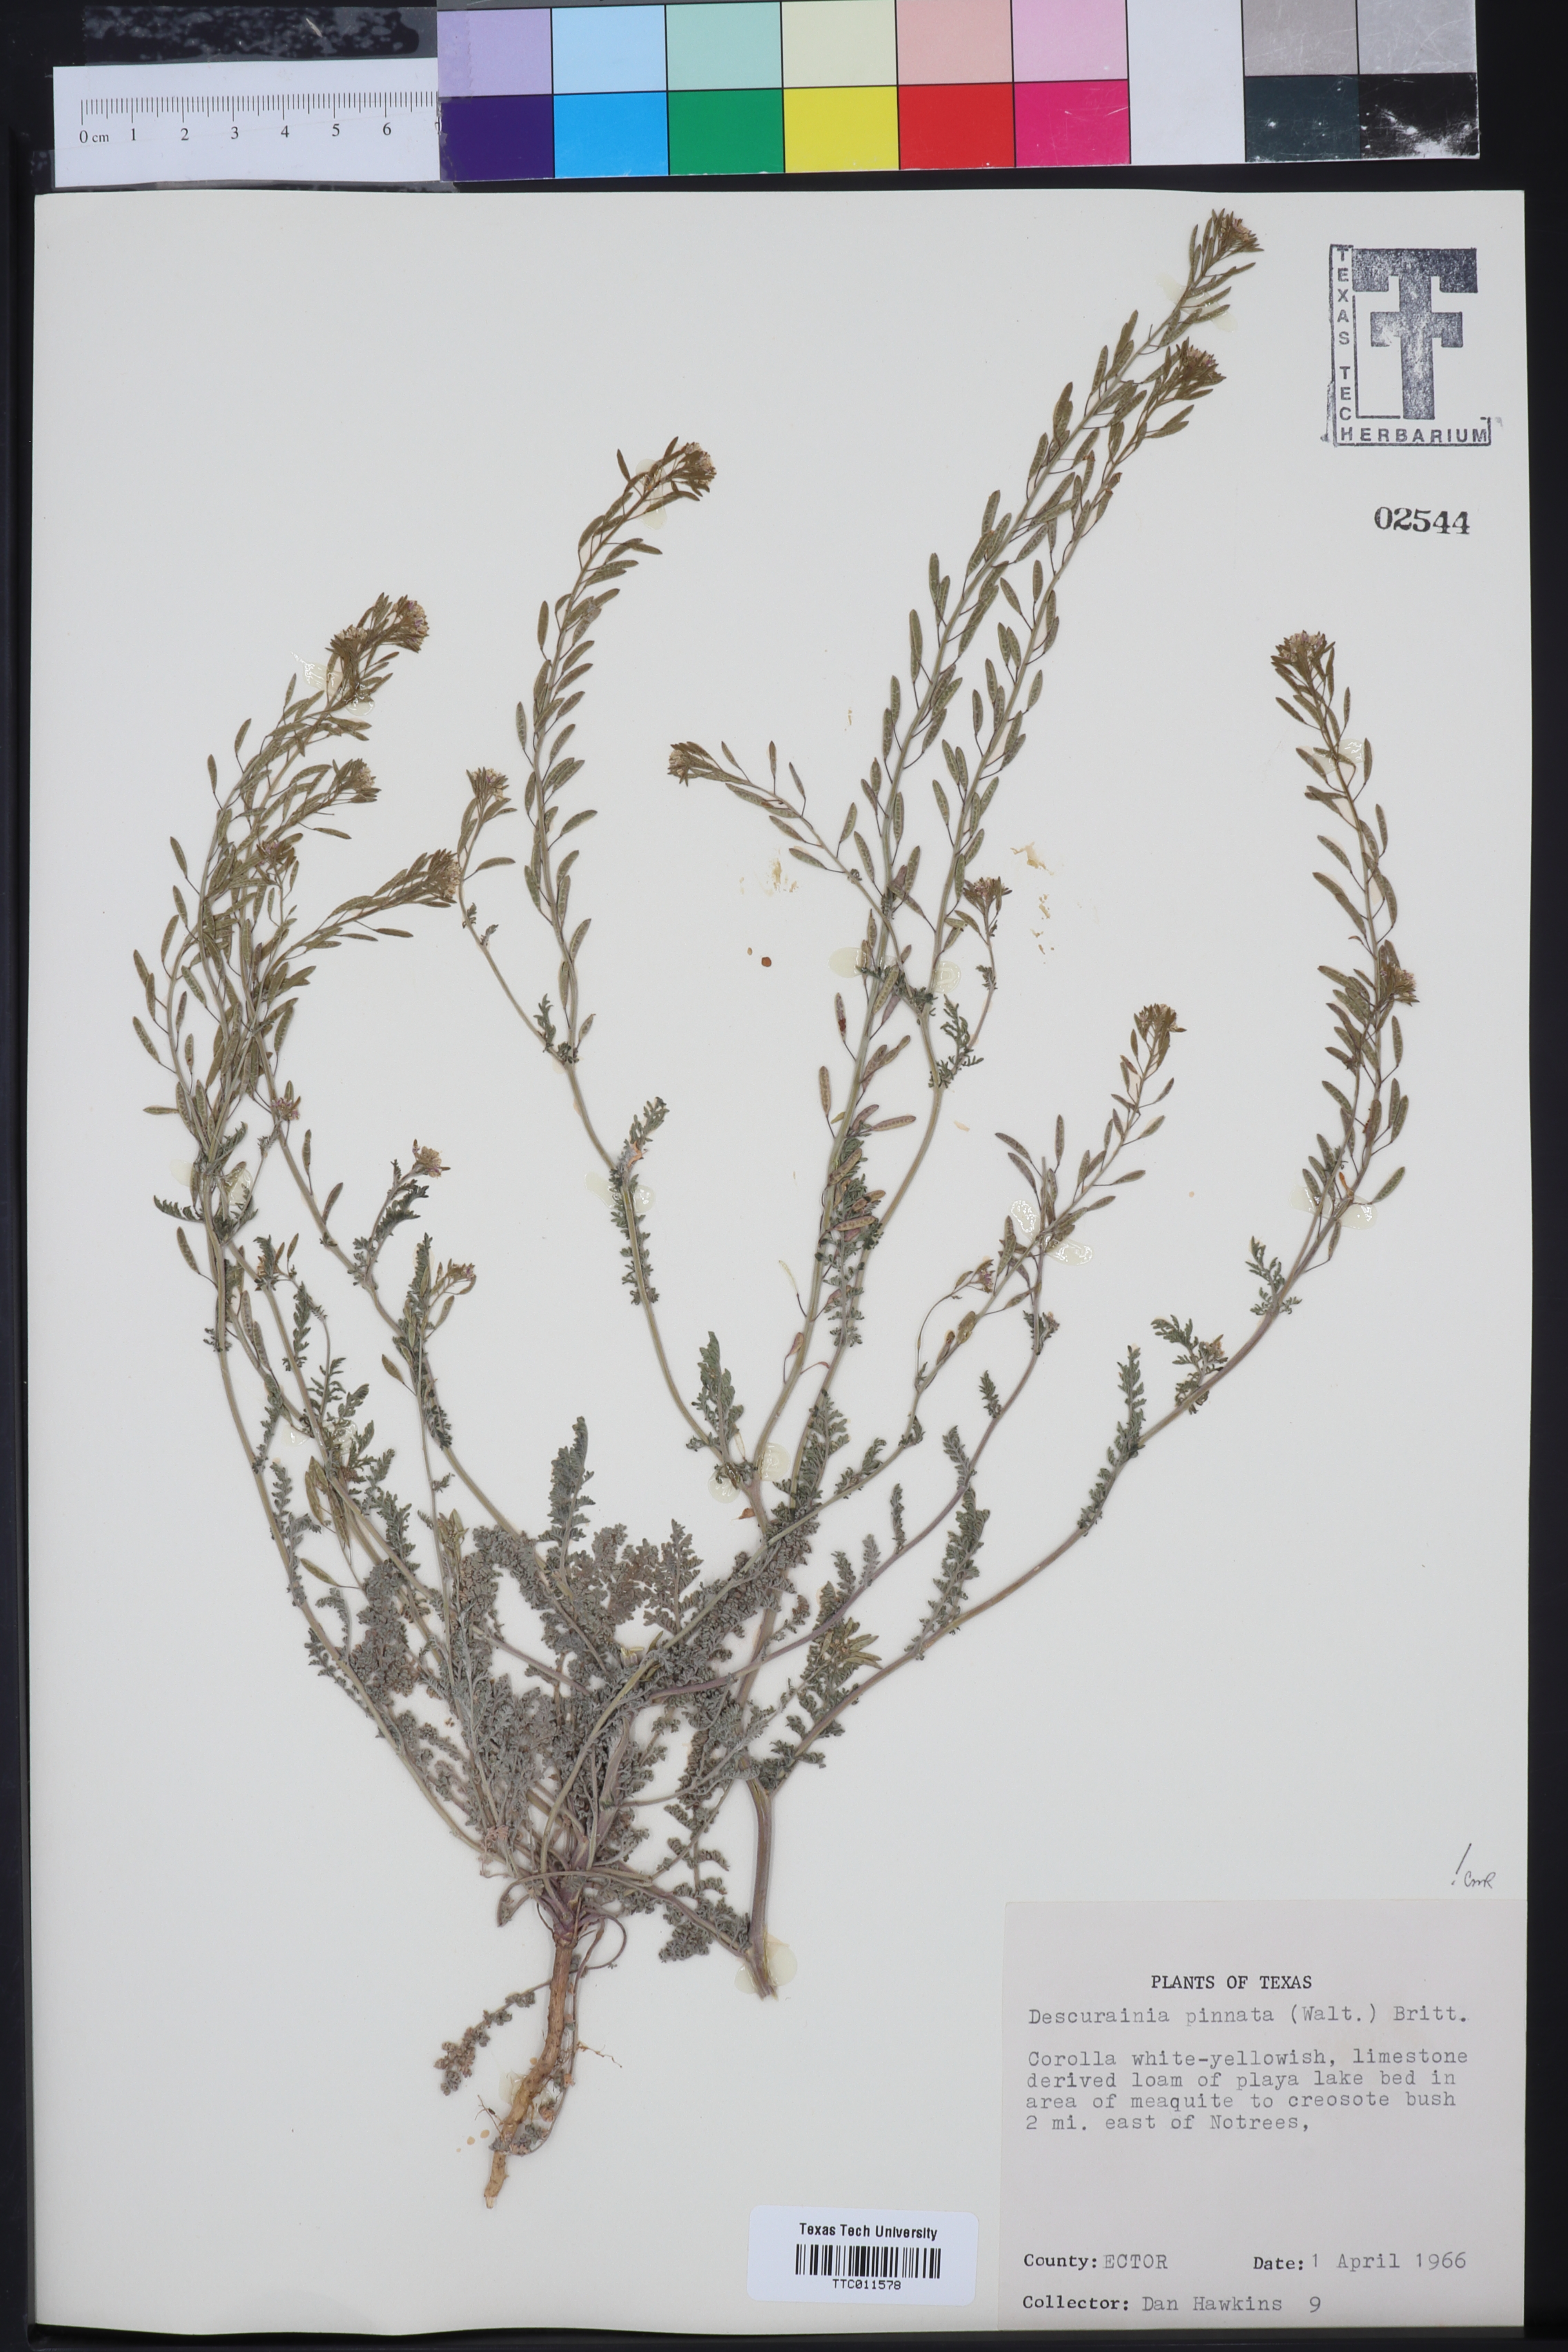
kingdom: Plantae
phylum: Tracheophyta
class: Magnoliopsida
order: Brassicales
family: Brassicaceae
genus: Descurainia
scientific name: Descurainia pinnata
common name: Western tansy mustard
